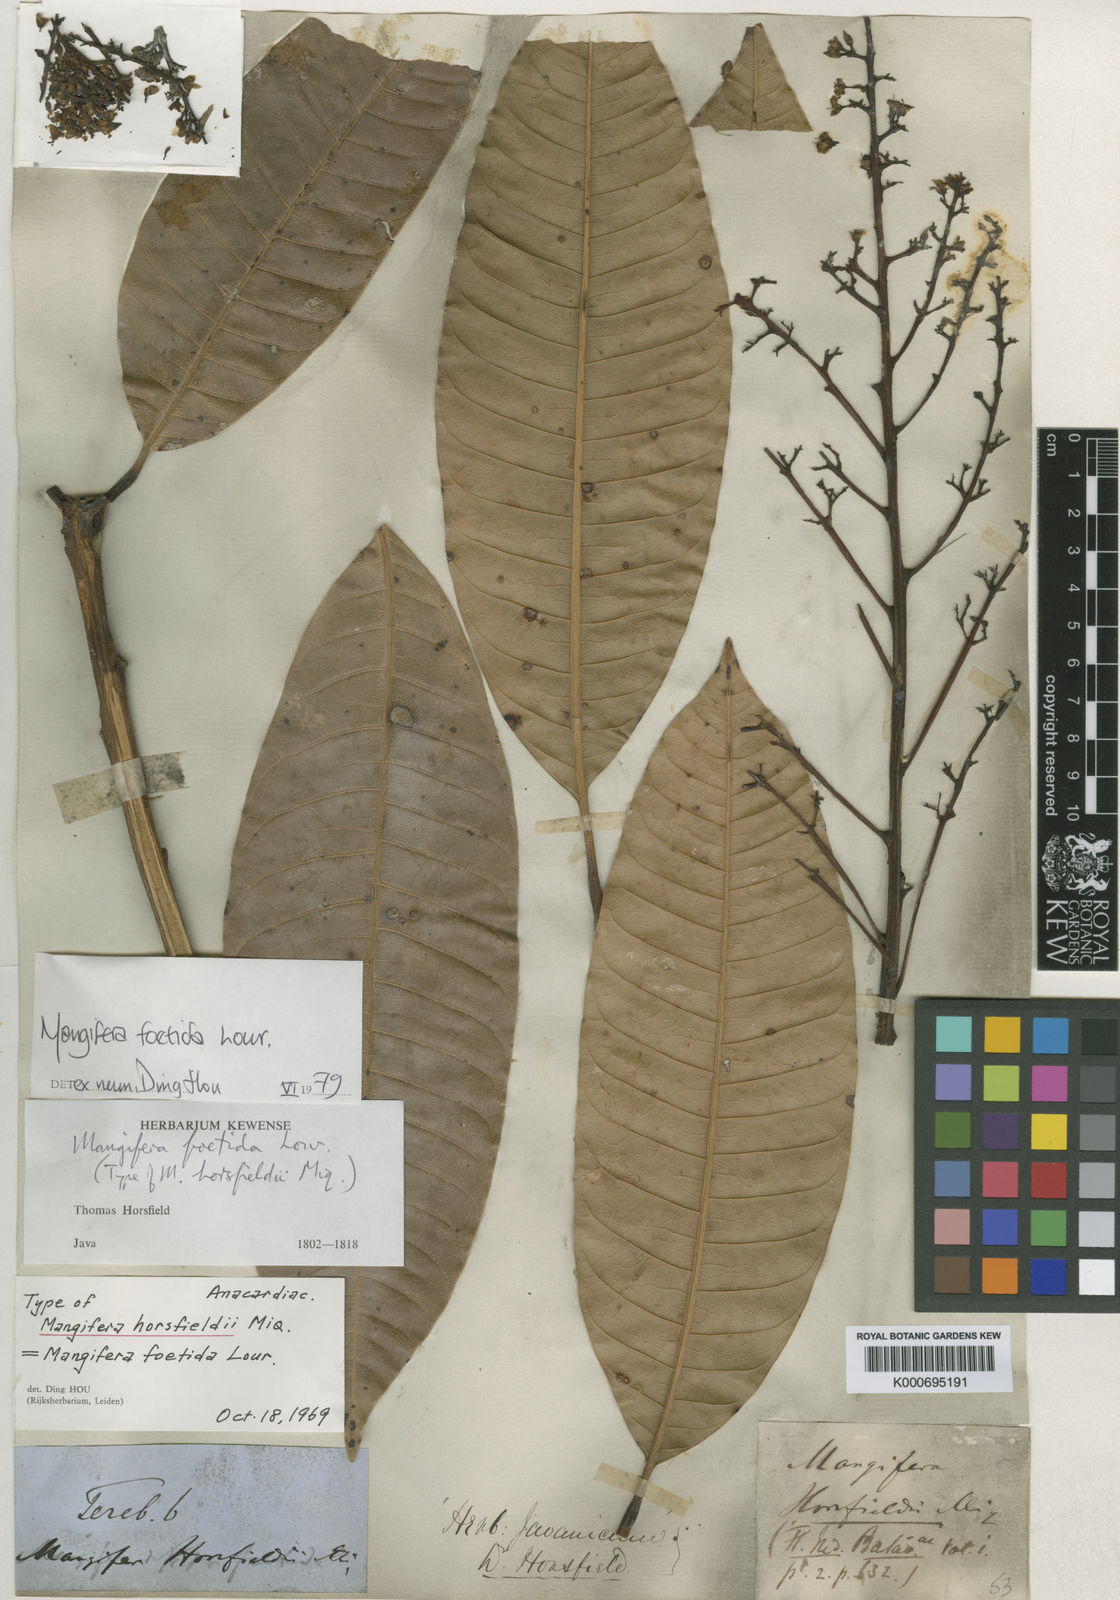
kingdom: Plantae
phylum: Tracheophyta
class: Magnoliopsida
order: Sapindales
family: Anacardiaceae
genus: Mangifera
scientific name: Mangifera foetida
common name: Horse mango
